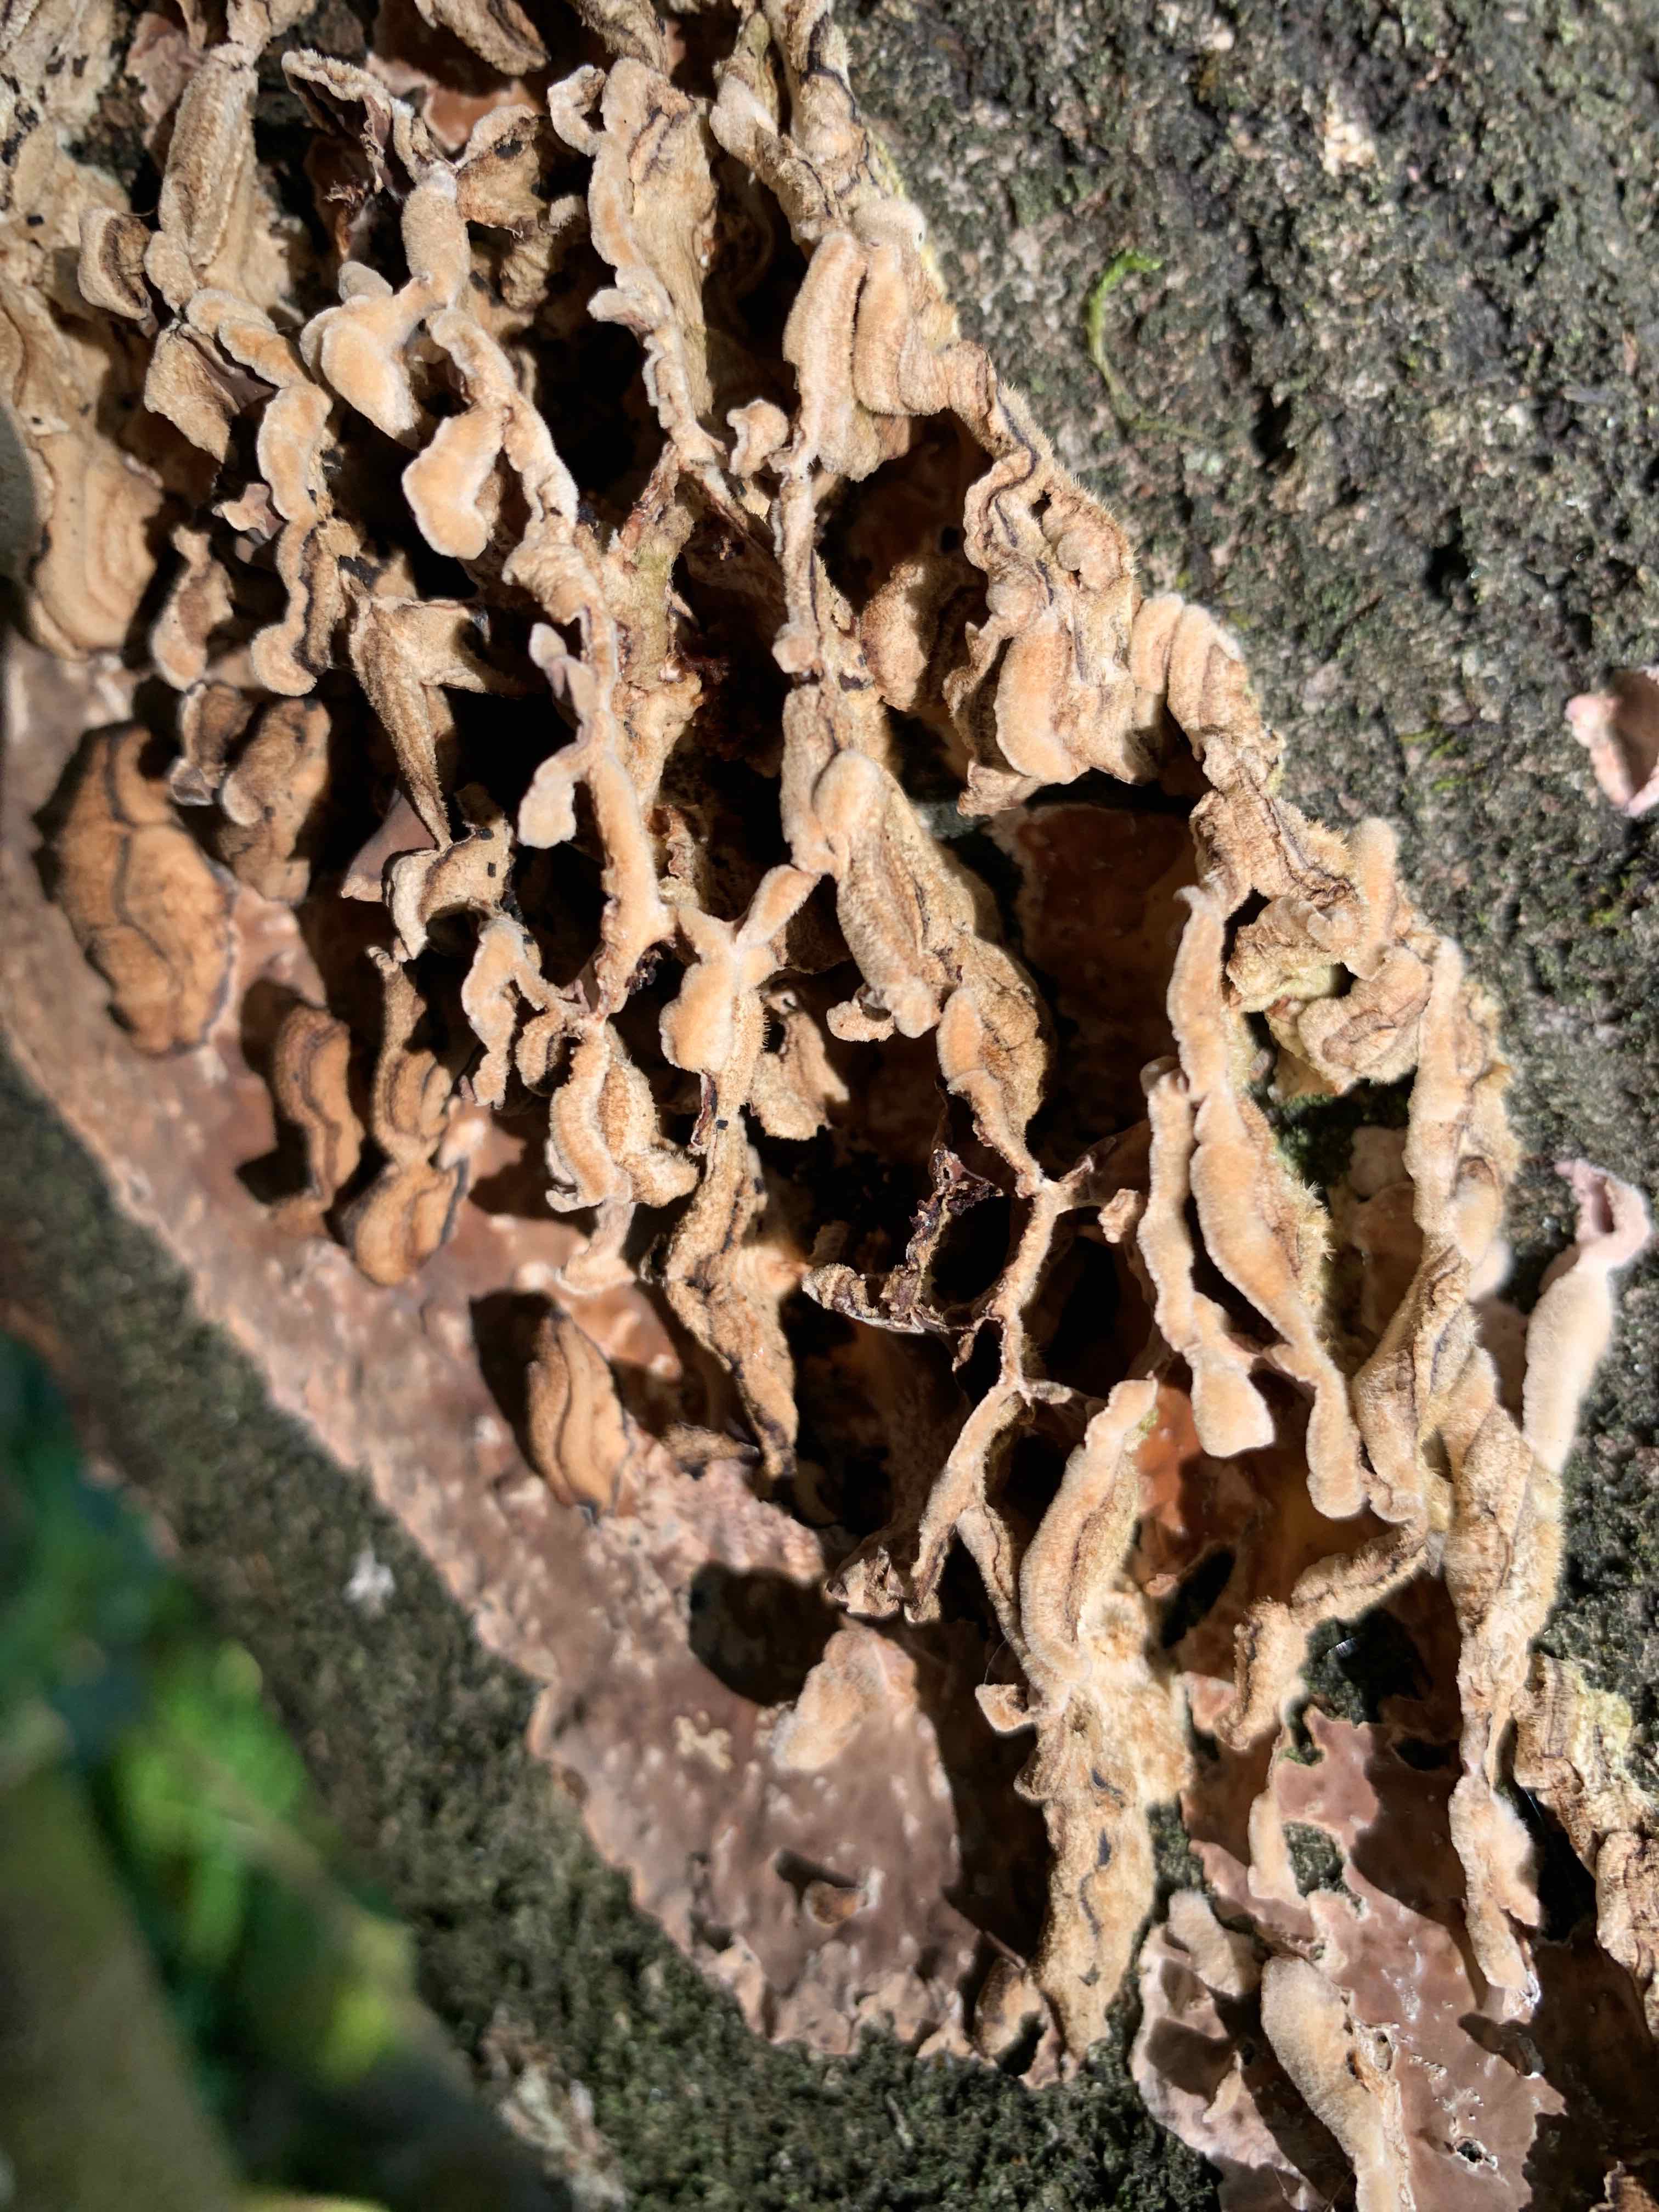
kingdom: Fungi
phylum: Basidiomycota
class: Agaricomycetes
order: Agaricales
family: Cyphellaceae
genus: Chondrostereum
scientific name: Chondrostereum purpureum
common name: purpurlædersvamp
